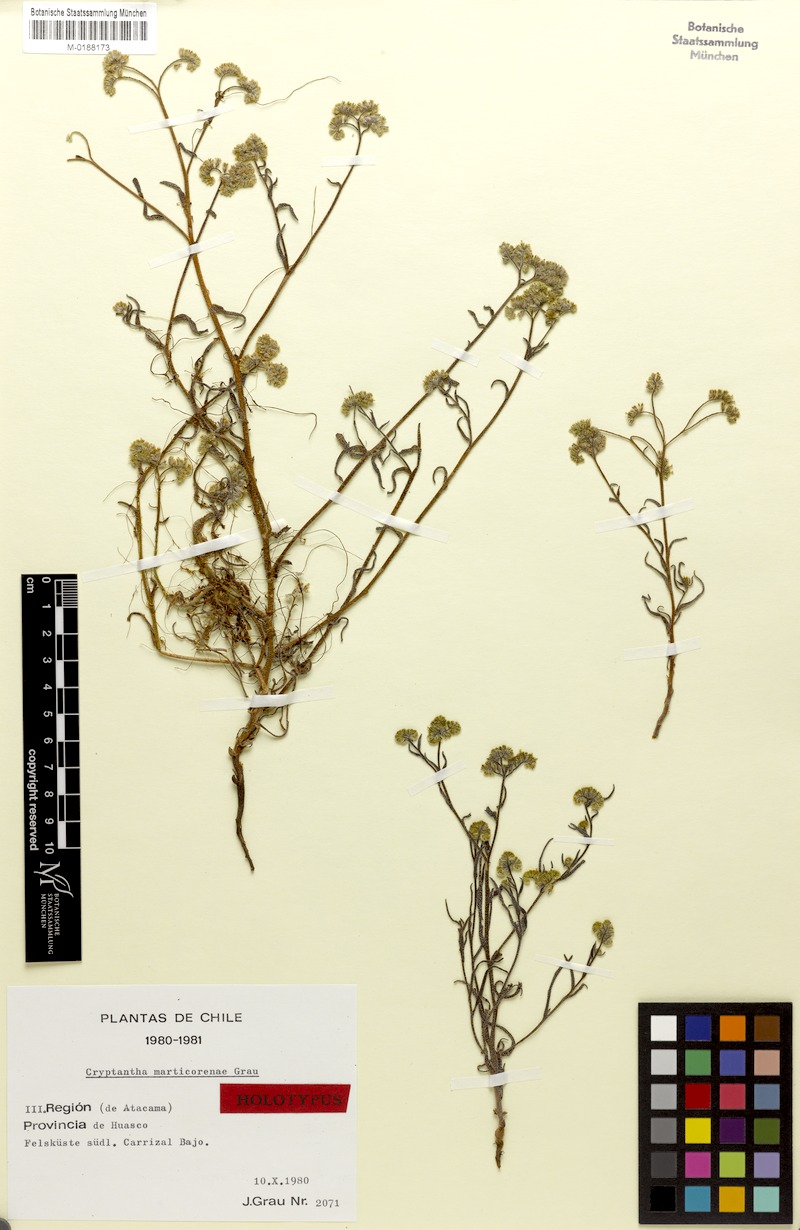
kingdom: Plantae
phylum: Tracheophyta
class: Magnoliopsida
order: Boraginales
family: Boraginaceae
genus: Cryptantha
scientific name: Cryptantha marticorenae
